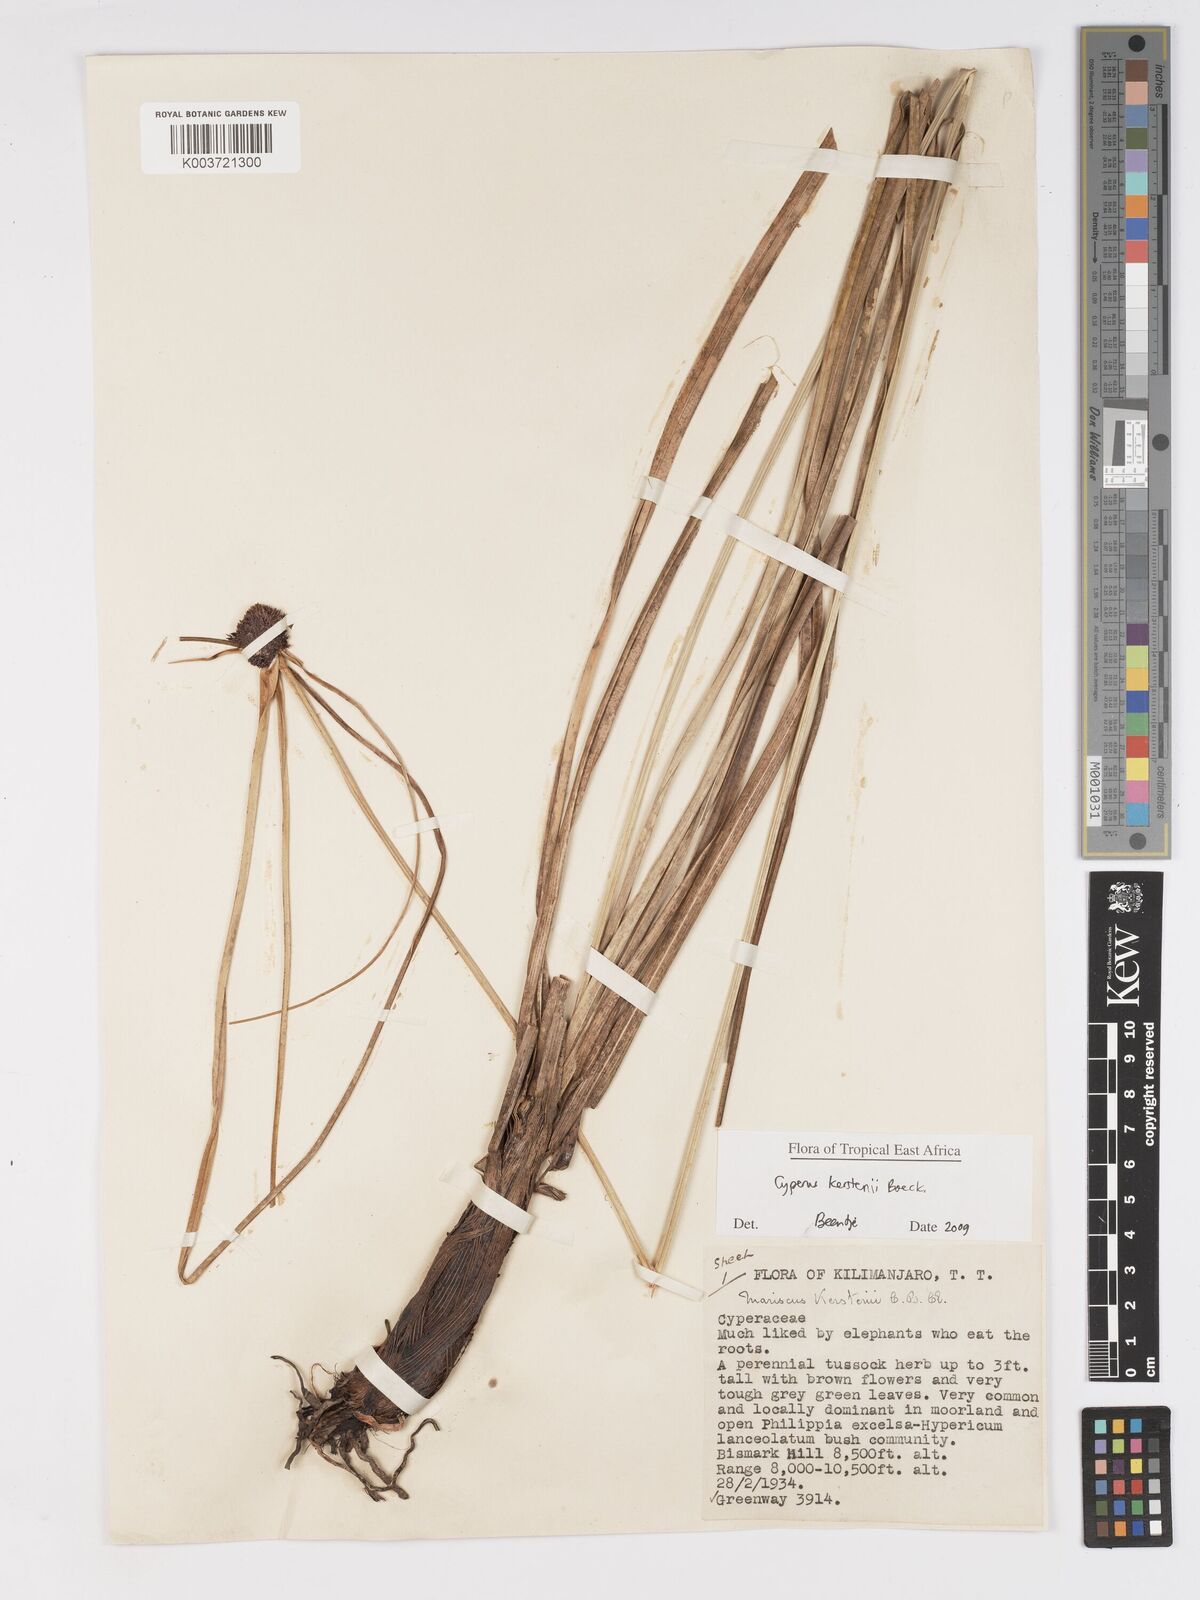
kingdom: Plantae
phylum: Tracheophyta
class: Liliopsida
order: Poales
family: Cyperaceae
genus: Cyperus
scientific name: Cyperus kerstenii
